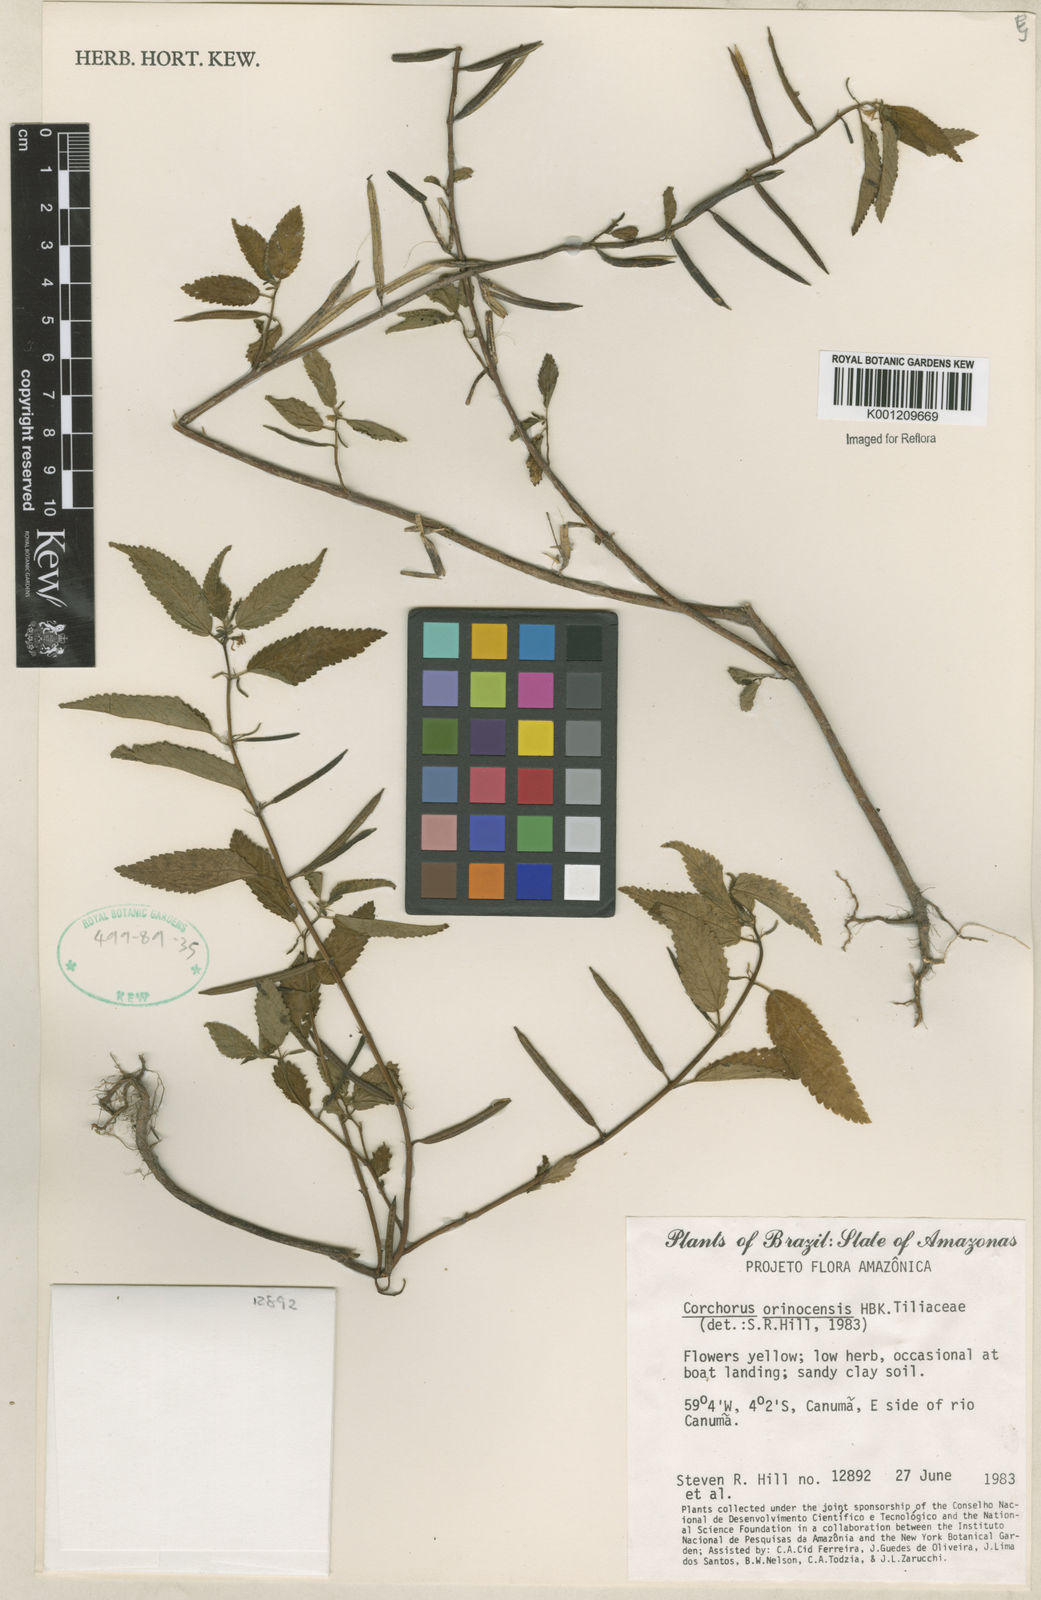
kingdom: Plantae
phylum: Tracheophyta
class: Magnoliopsida
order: Malvales
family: Malvaceae
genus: Corchorus
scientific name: Corchorus orinocensis
